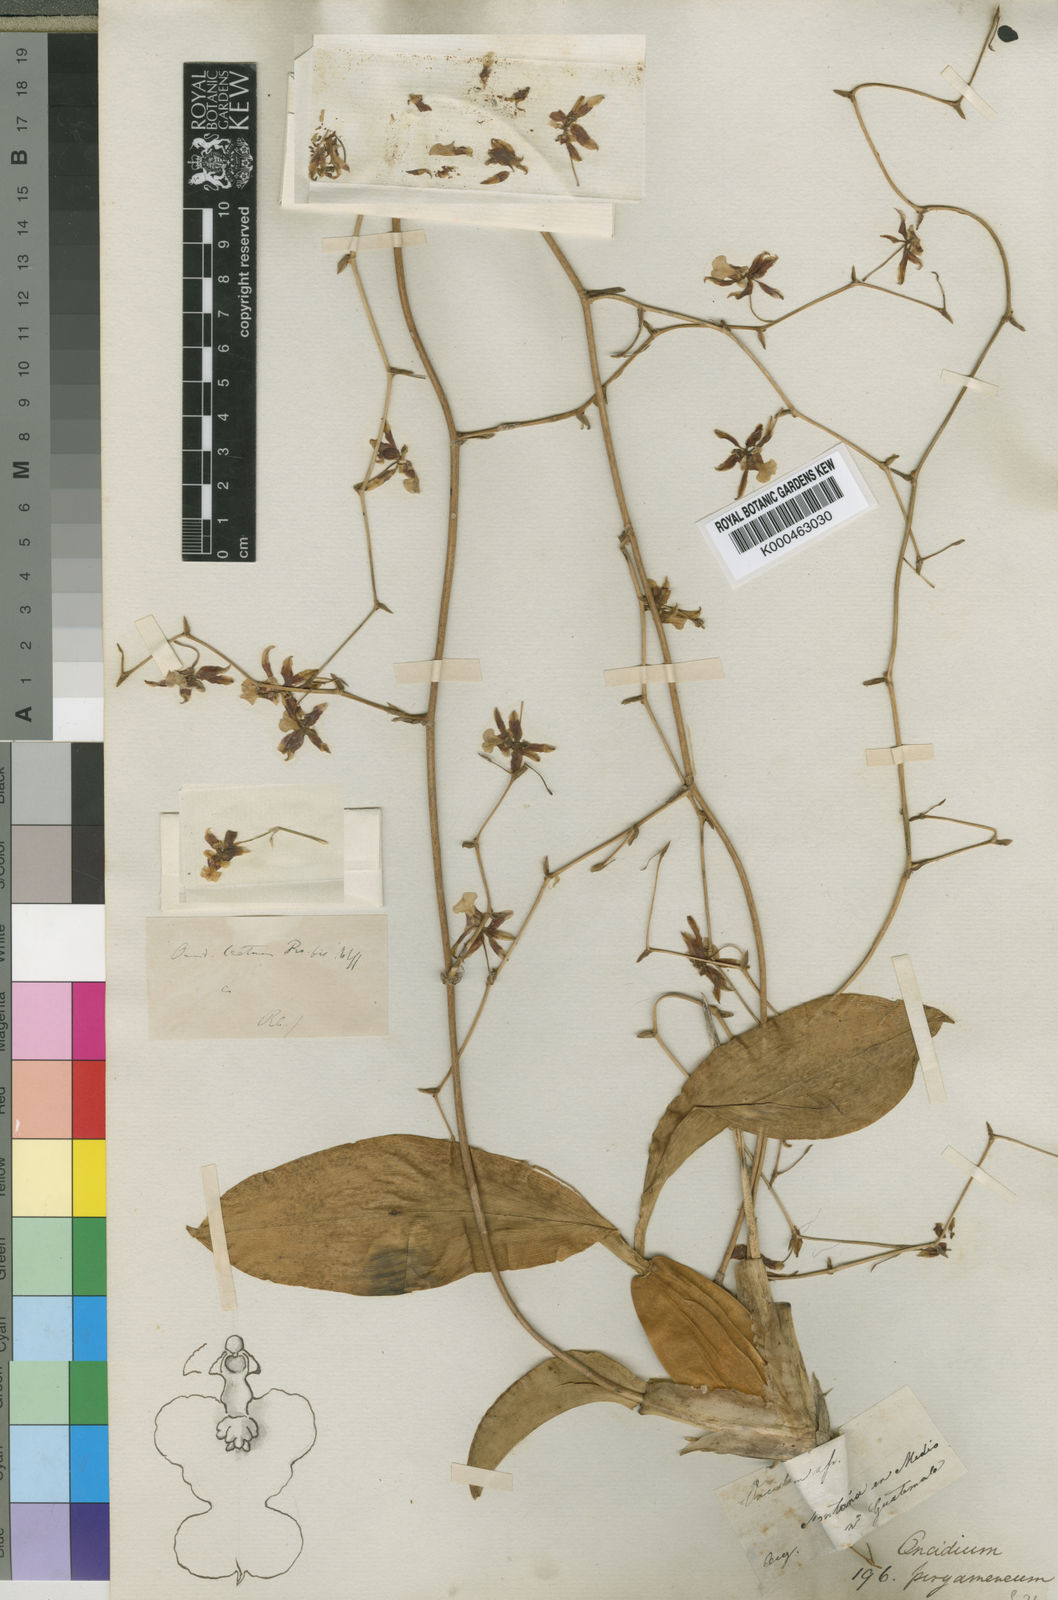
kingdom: Plantae
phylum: Tracheophyta
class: Liliopsida
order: Asparagales
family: Orchidaceae
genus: Oncidium
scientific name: Oncidium pergameneum
